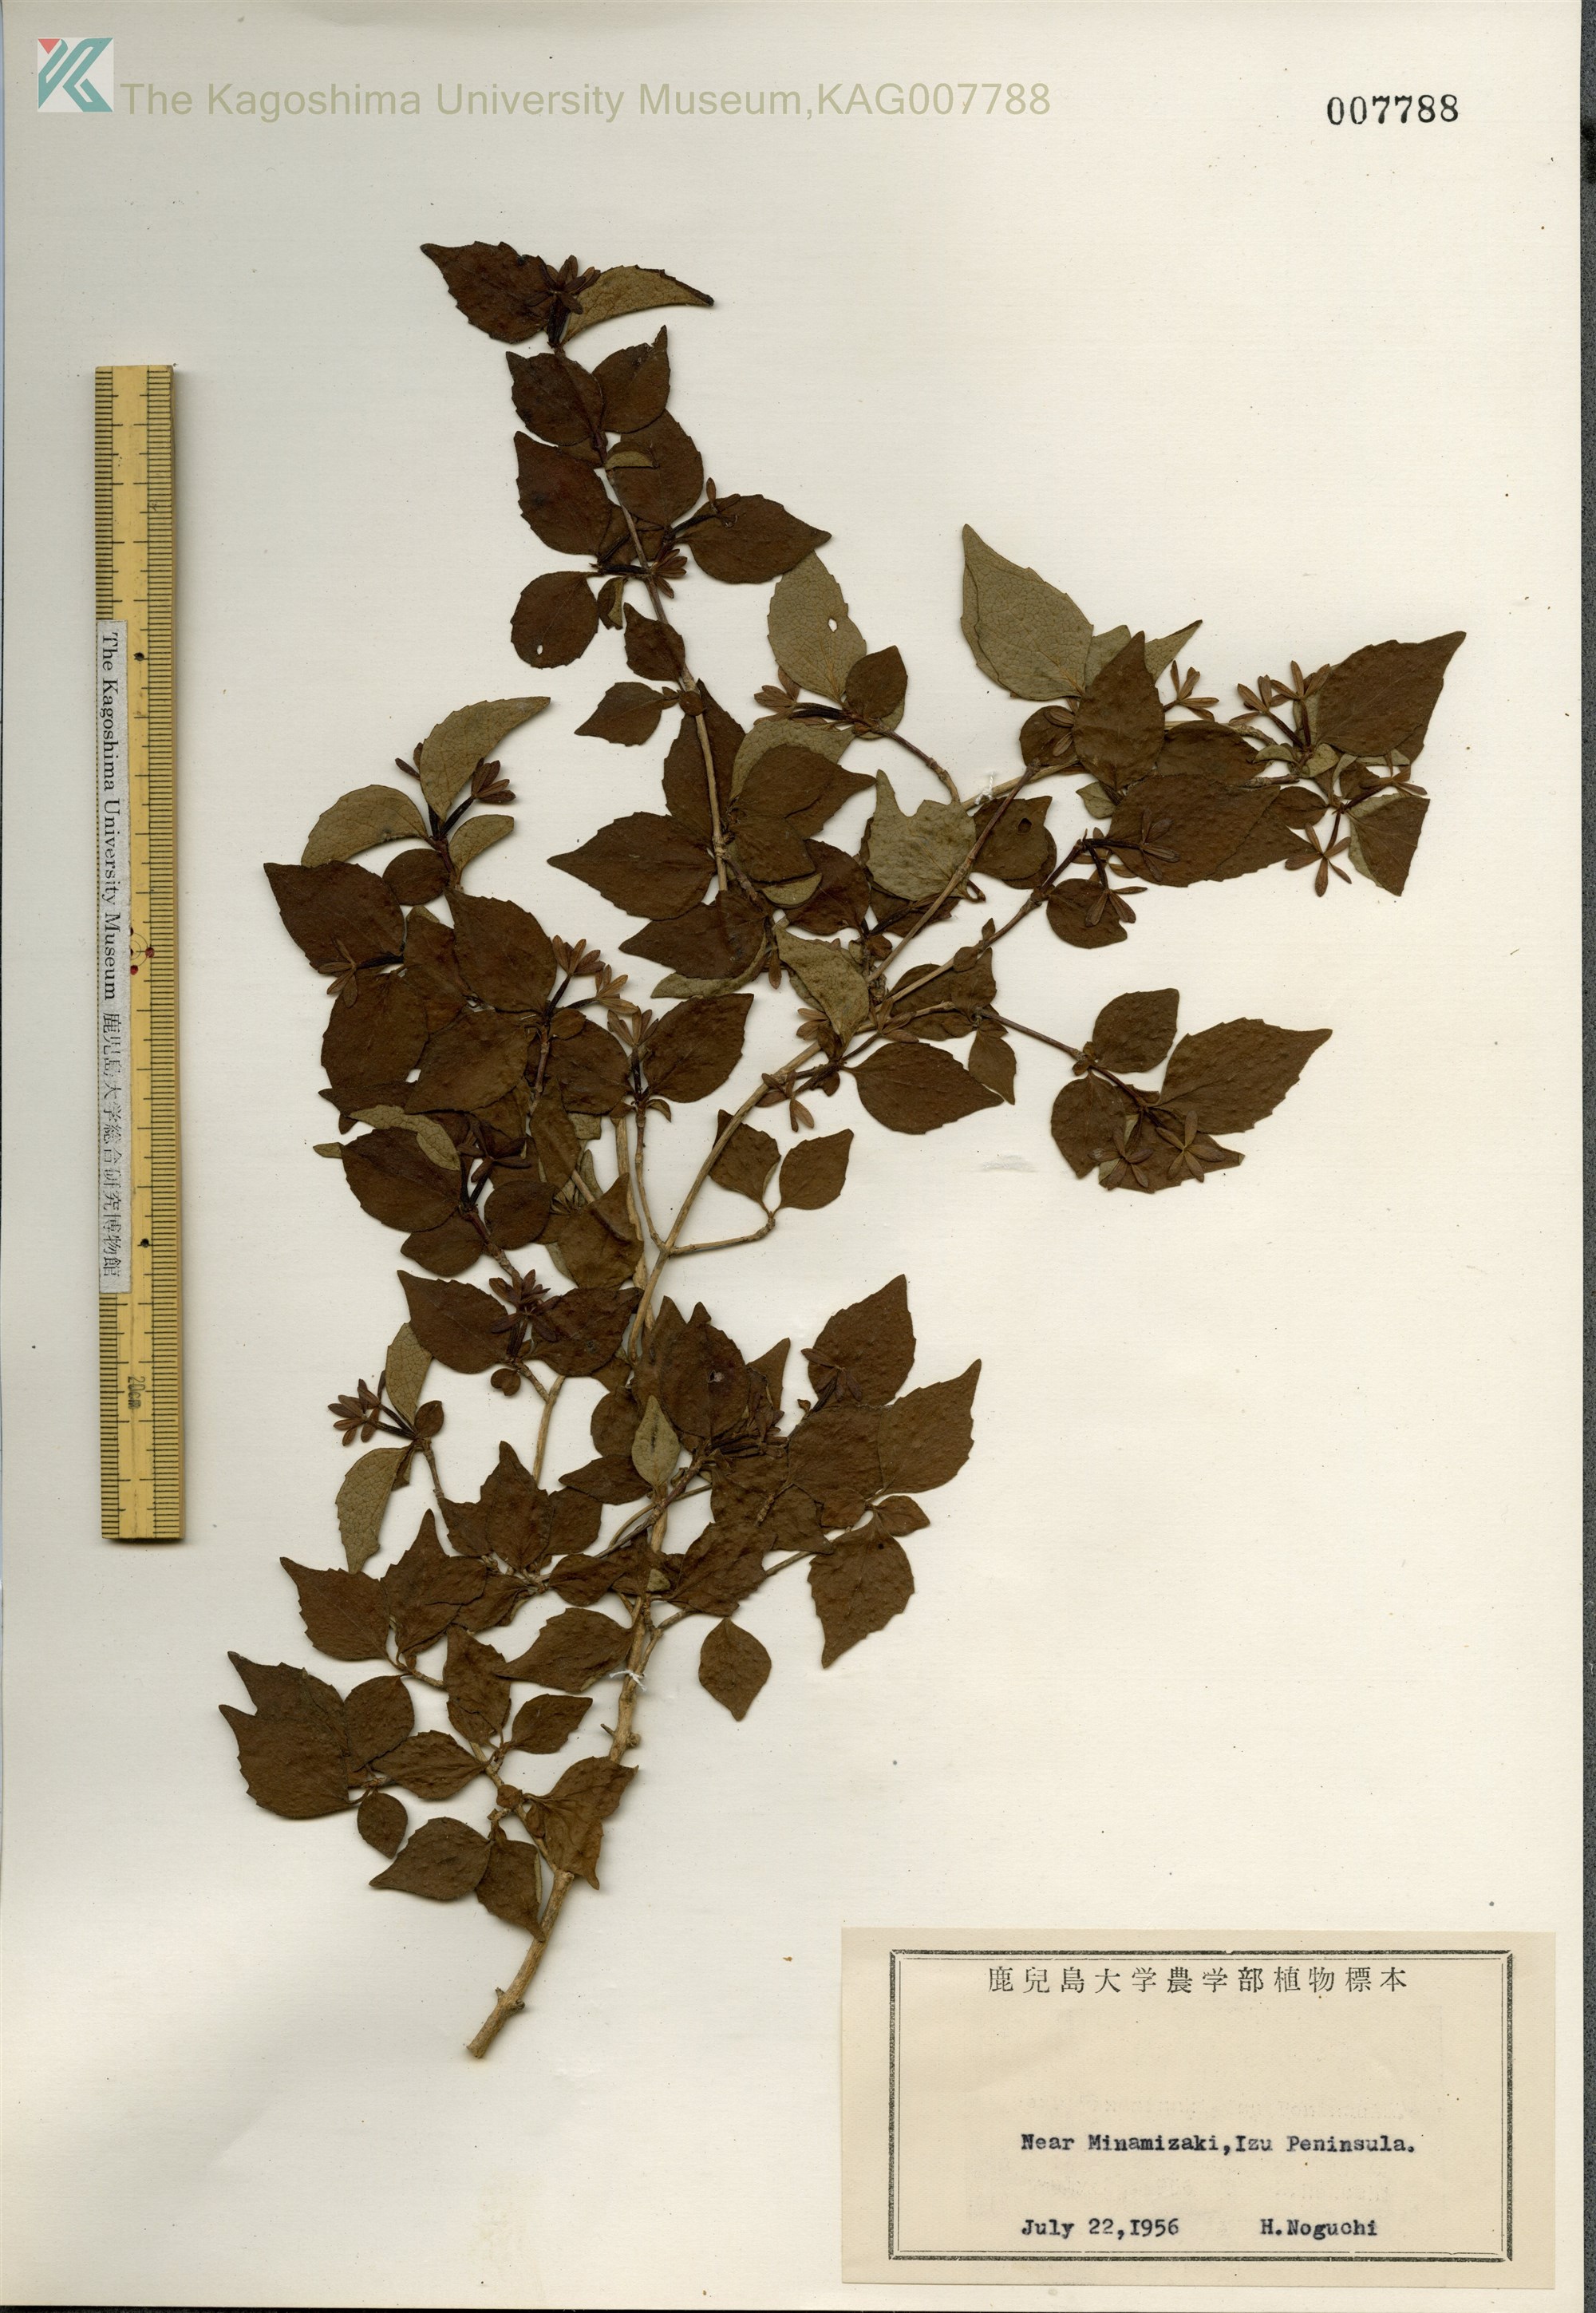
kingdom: Plantae
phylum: Tracheophyta
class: Magnoliopsida
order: Dipsacales
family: Caprifoliaceae
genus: Diabelia
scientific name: Diabelia spathulata
